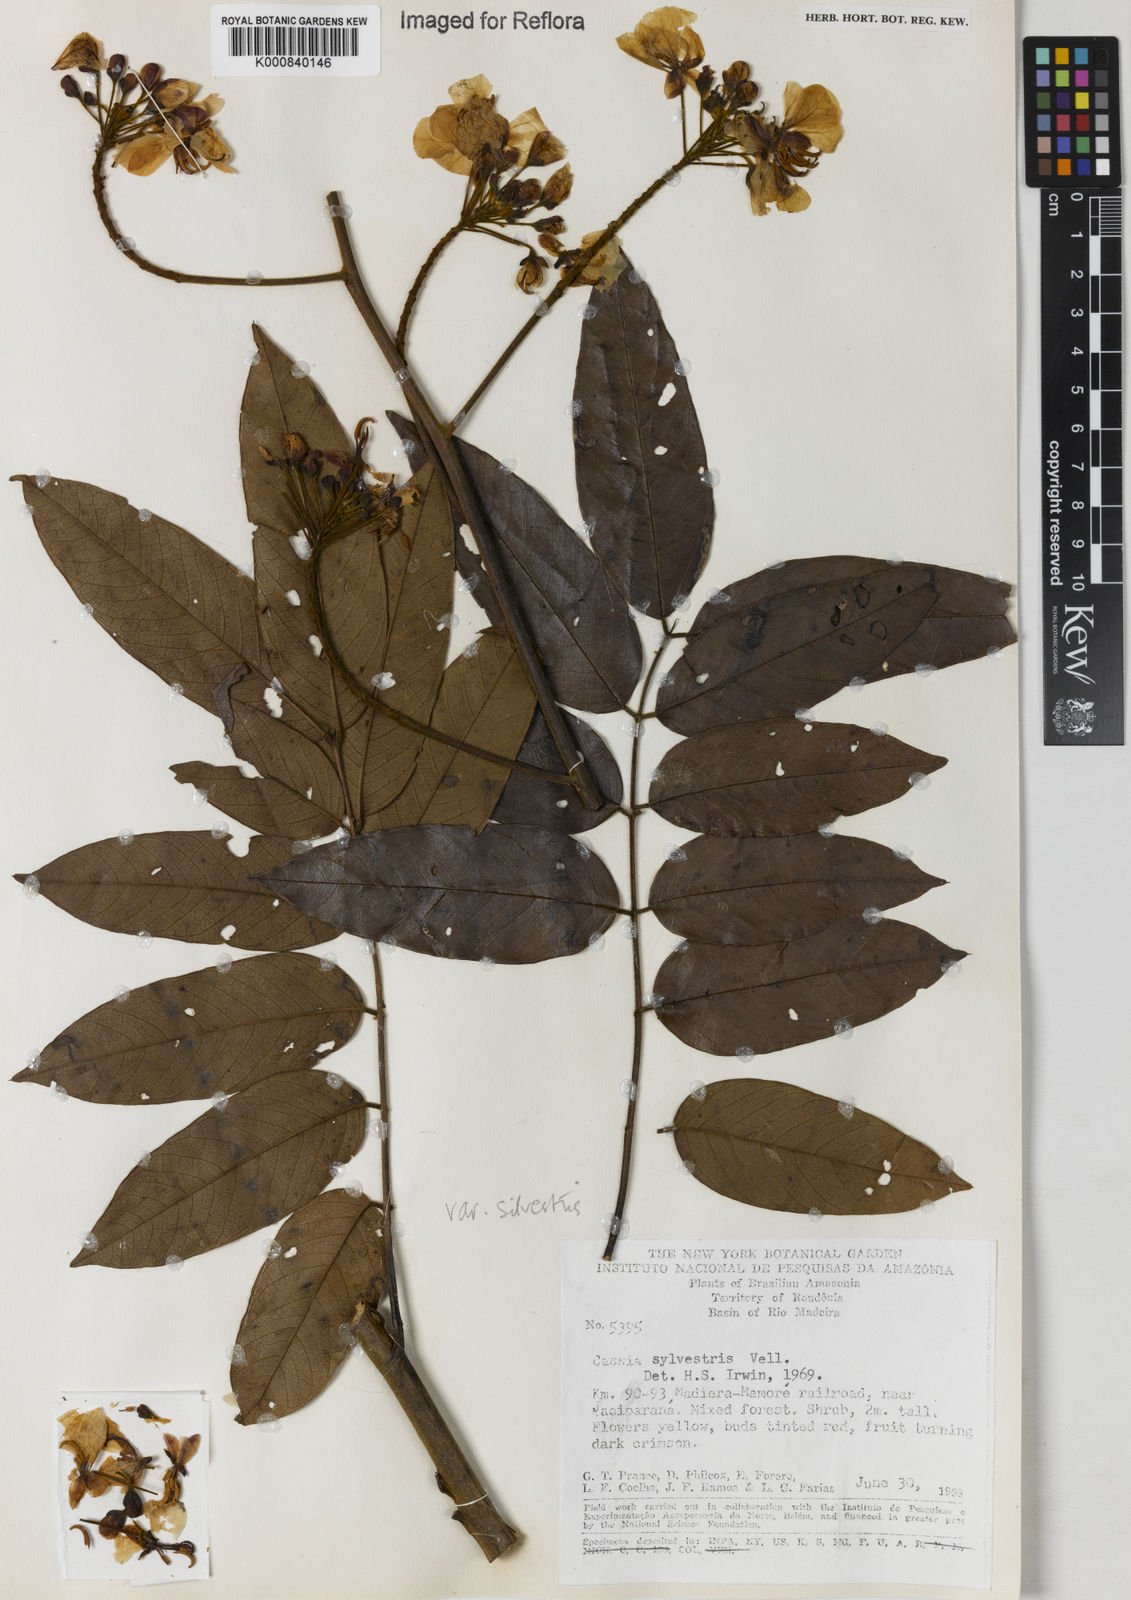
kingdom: Plantae
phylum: Tracheophyta
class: Magnoliopsida
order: Fabales
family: Fabaceae
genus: Senna
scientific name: Senna silvestris
